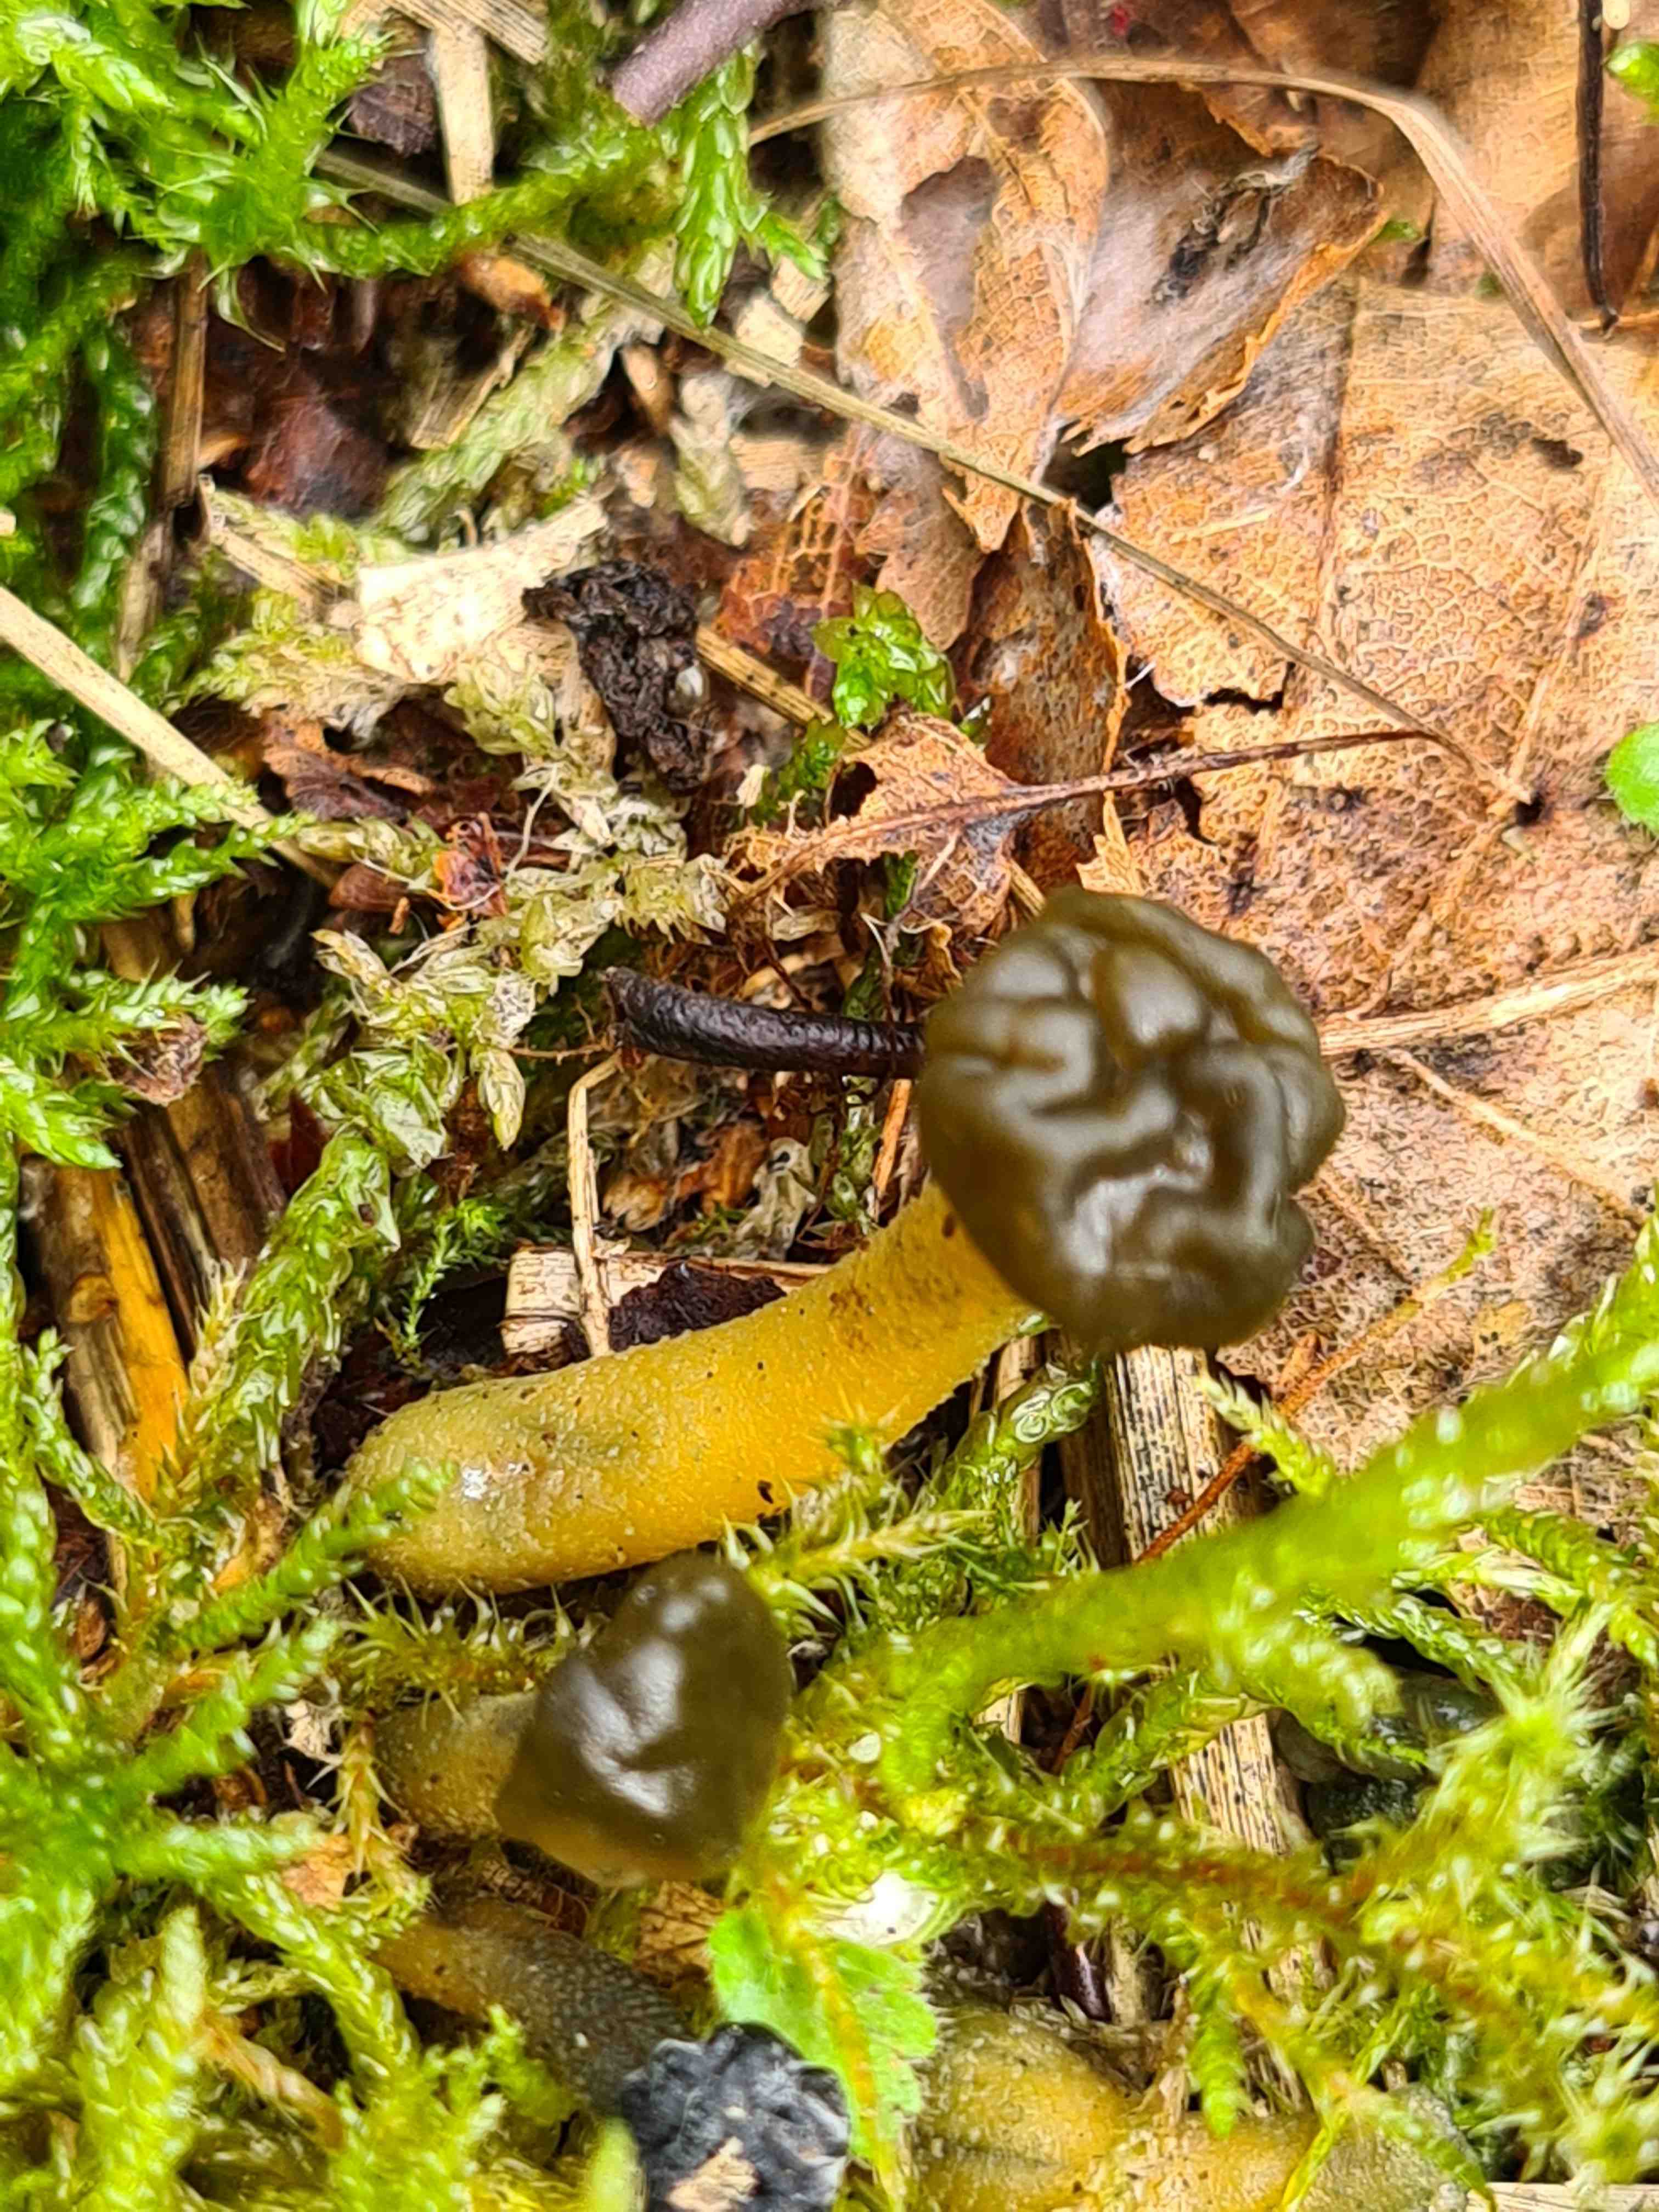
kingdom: Fungi
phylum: Ascomycota
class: Leotiomycetes
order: Leotiales
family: Leotiaceae
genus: Leotia
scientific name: Leotia lubrica
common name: ravsvamp
